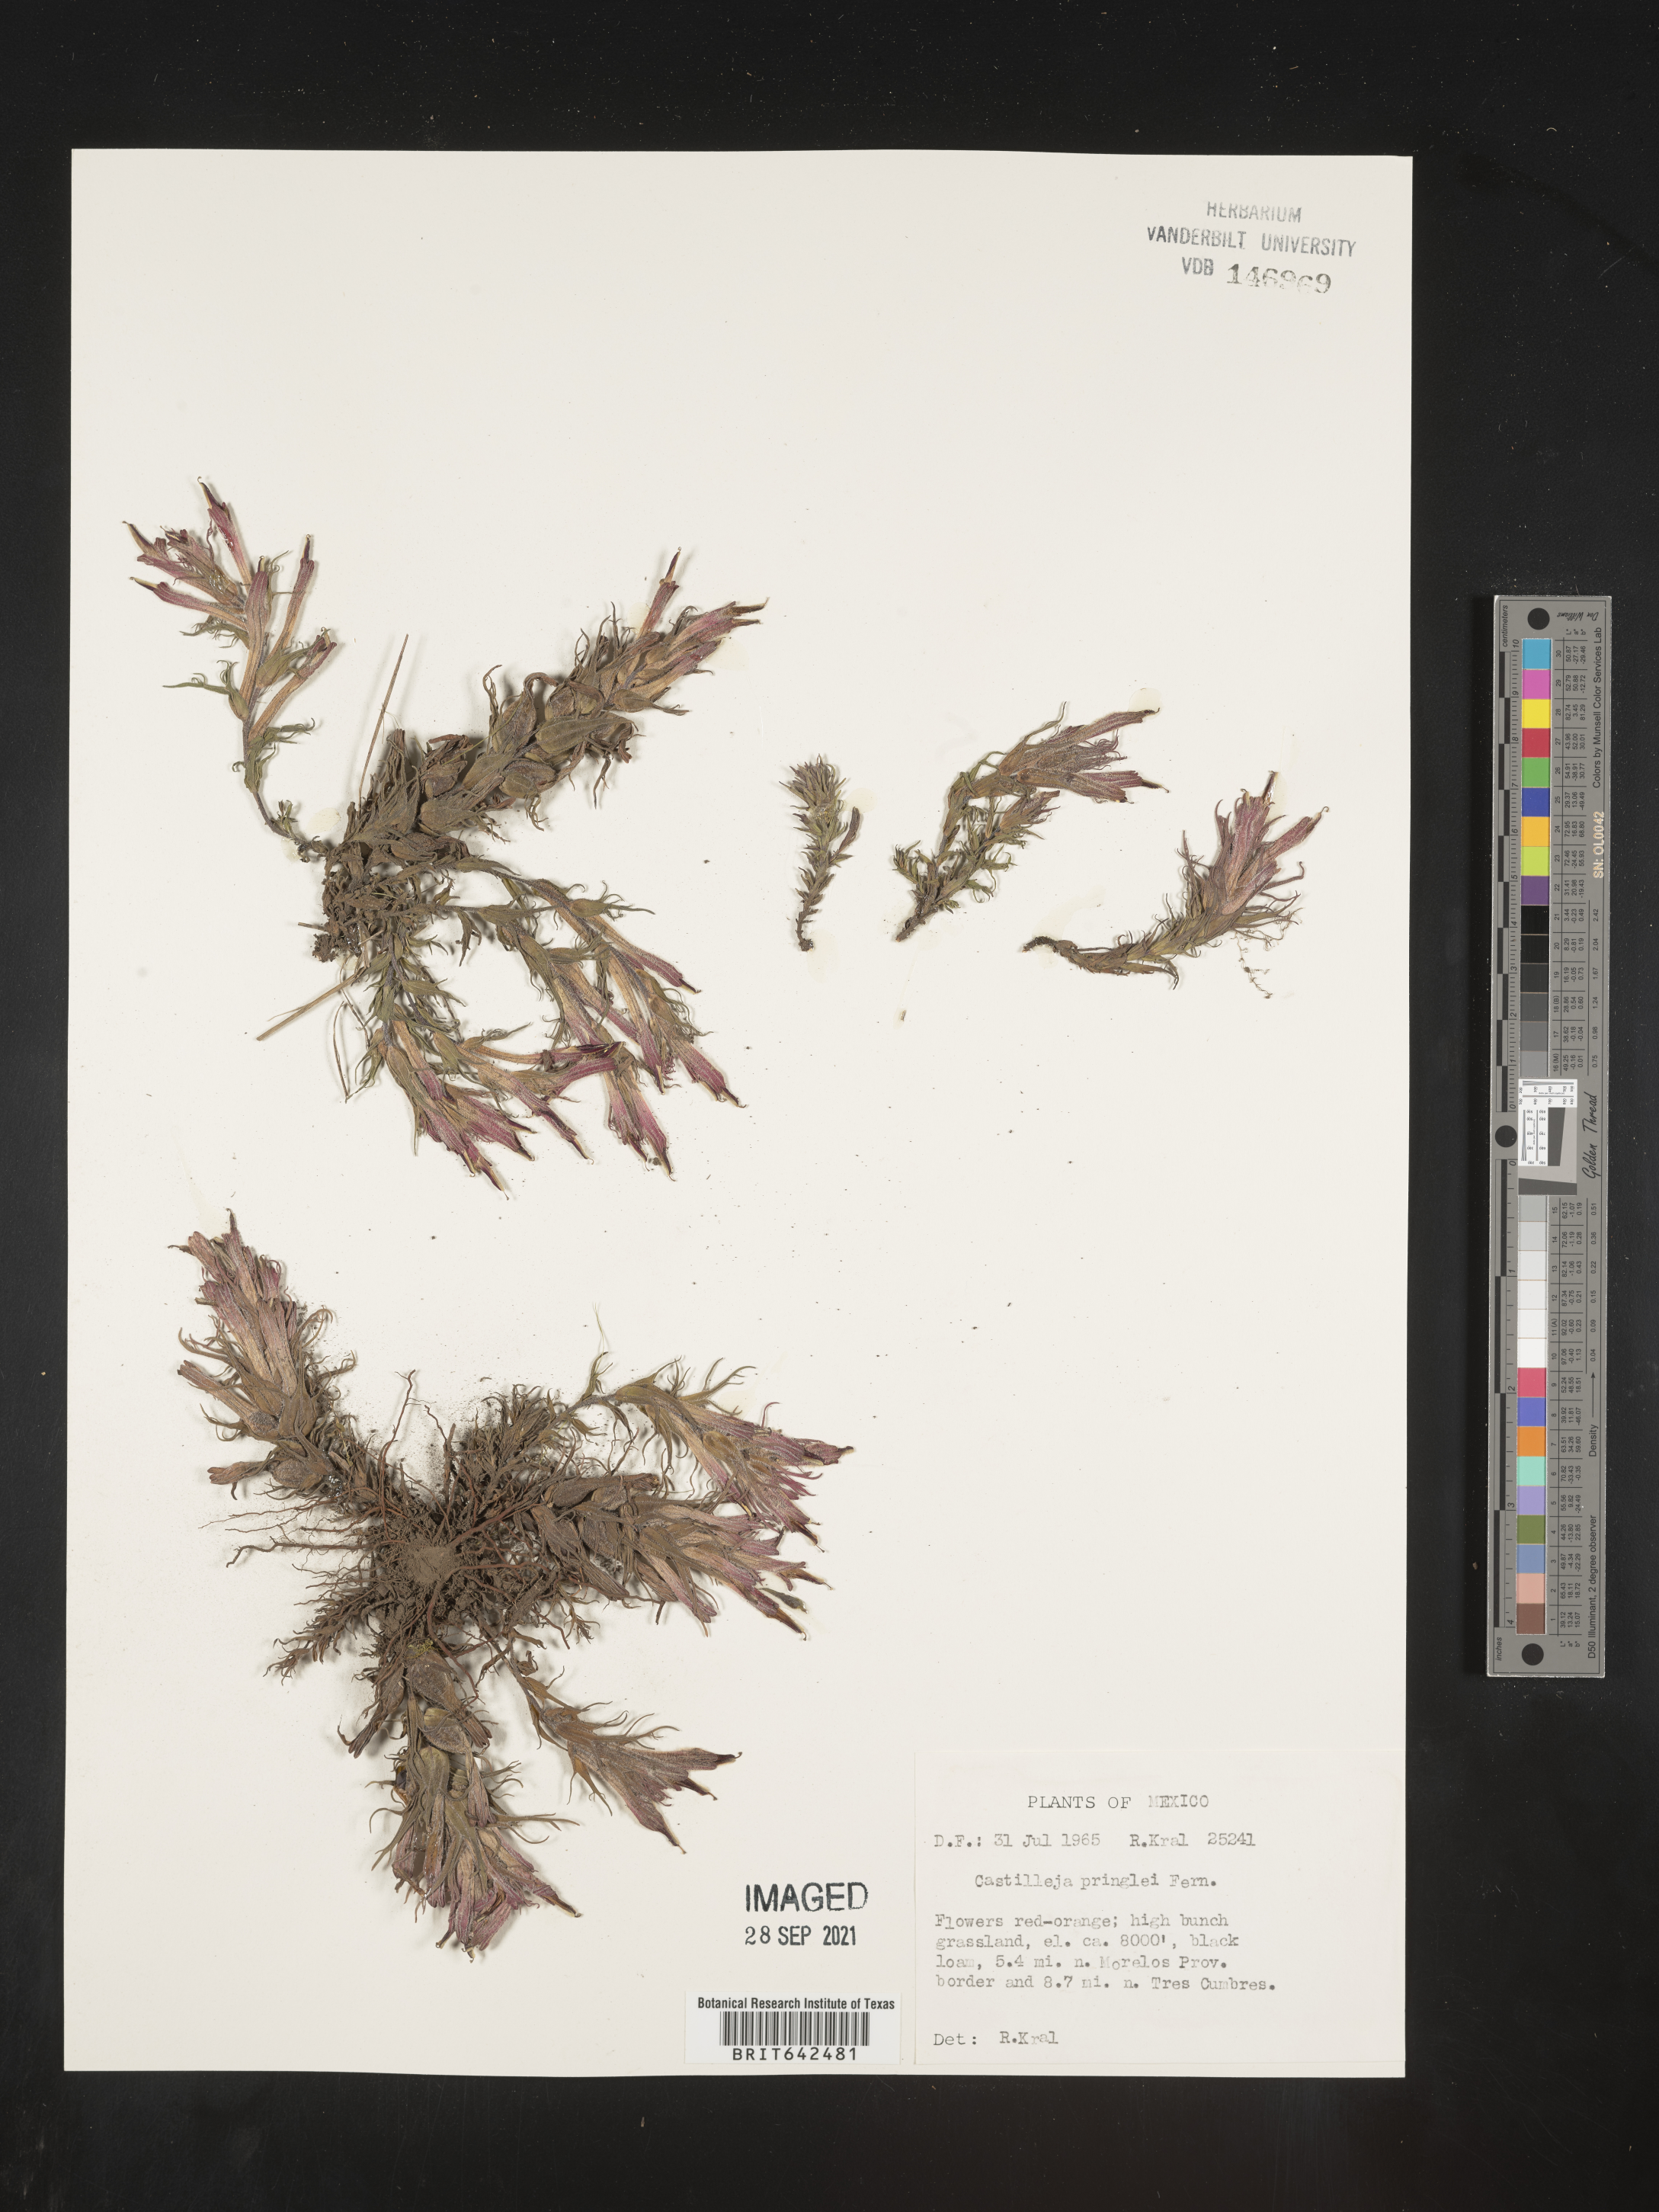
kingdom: Plantae
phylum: Tracheophyta
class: Magnoliopsida
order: Lamiales
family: Orobanchaceae
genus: Castilleja
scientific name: Castilleja
